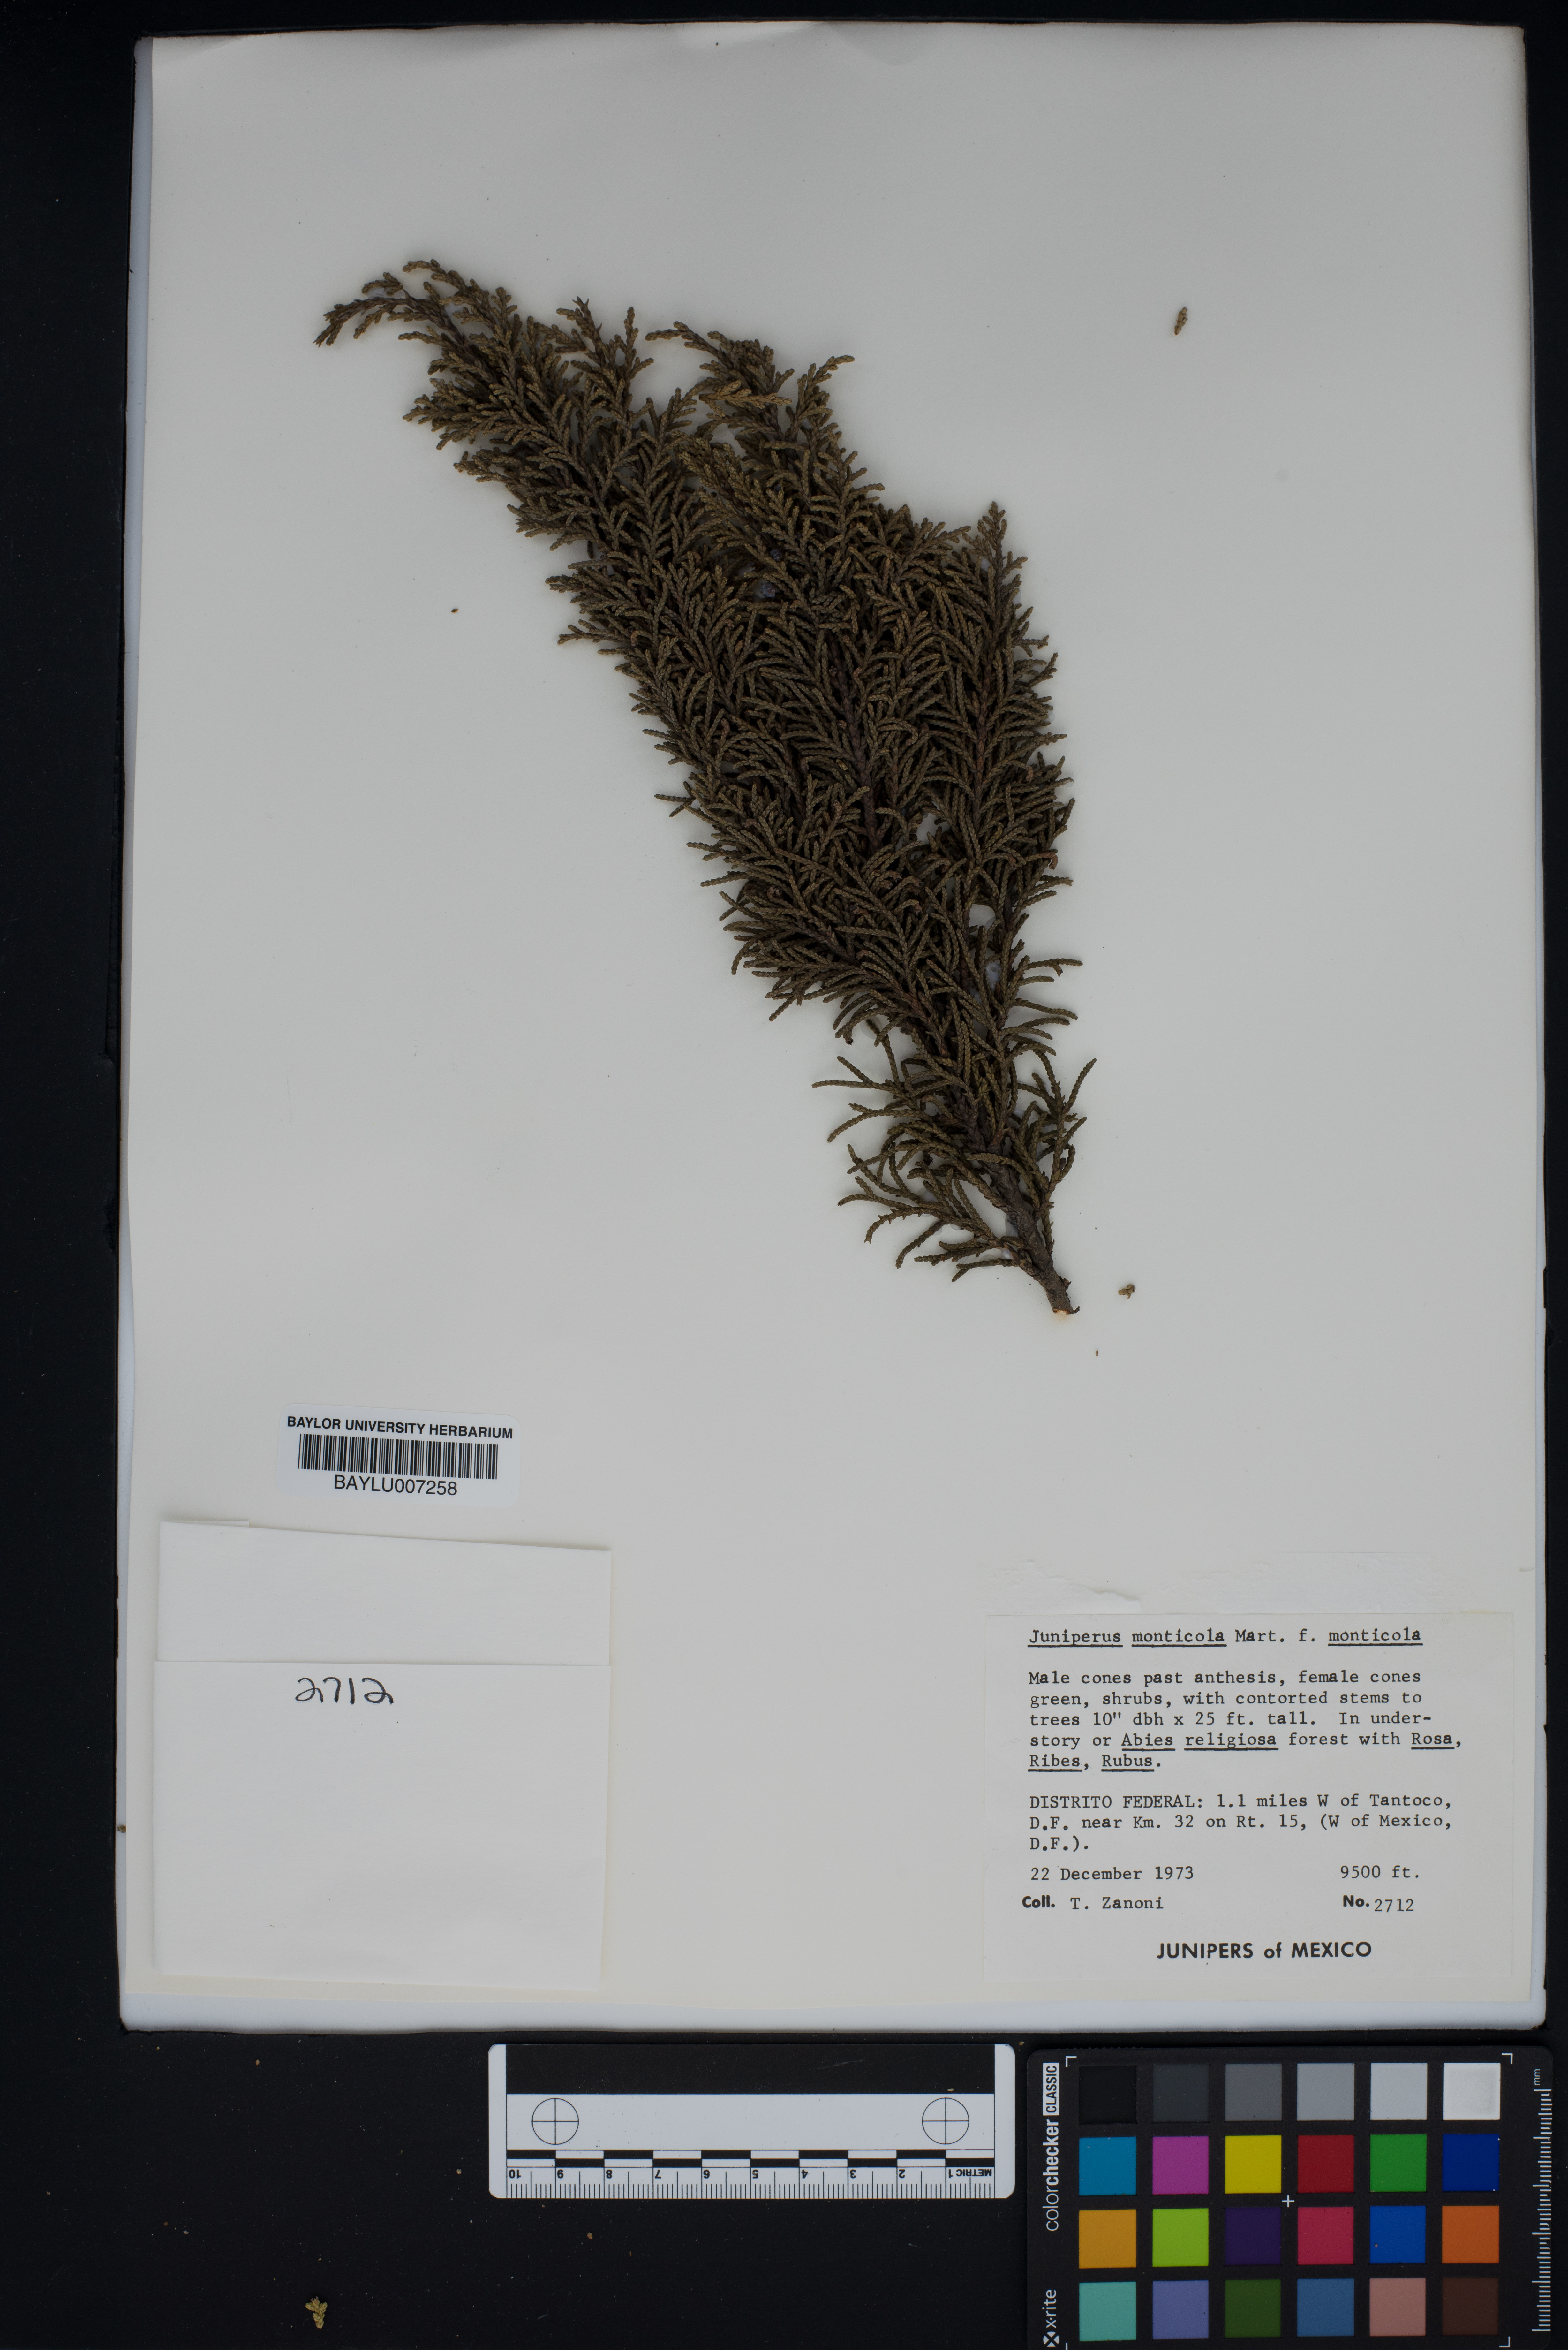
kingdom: Plantae
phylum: Tracheophyta
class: Pinopsida
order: Pinales
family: Cupressaceae
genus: Juniperus
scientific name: Juniperus monticola
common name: Mexican juniper
